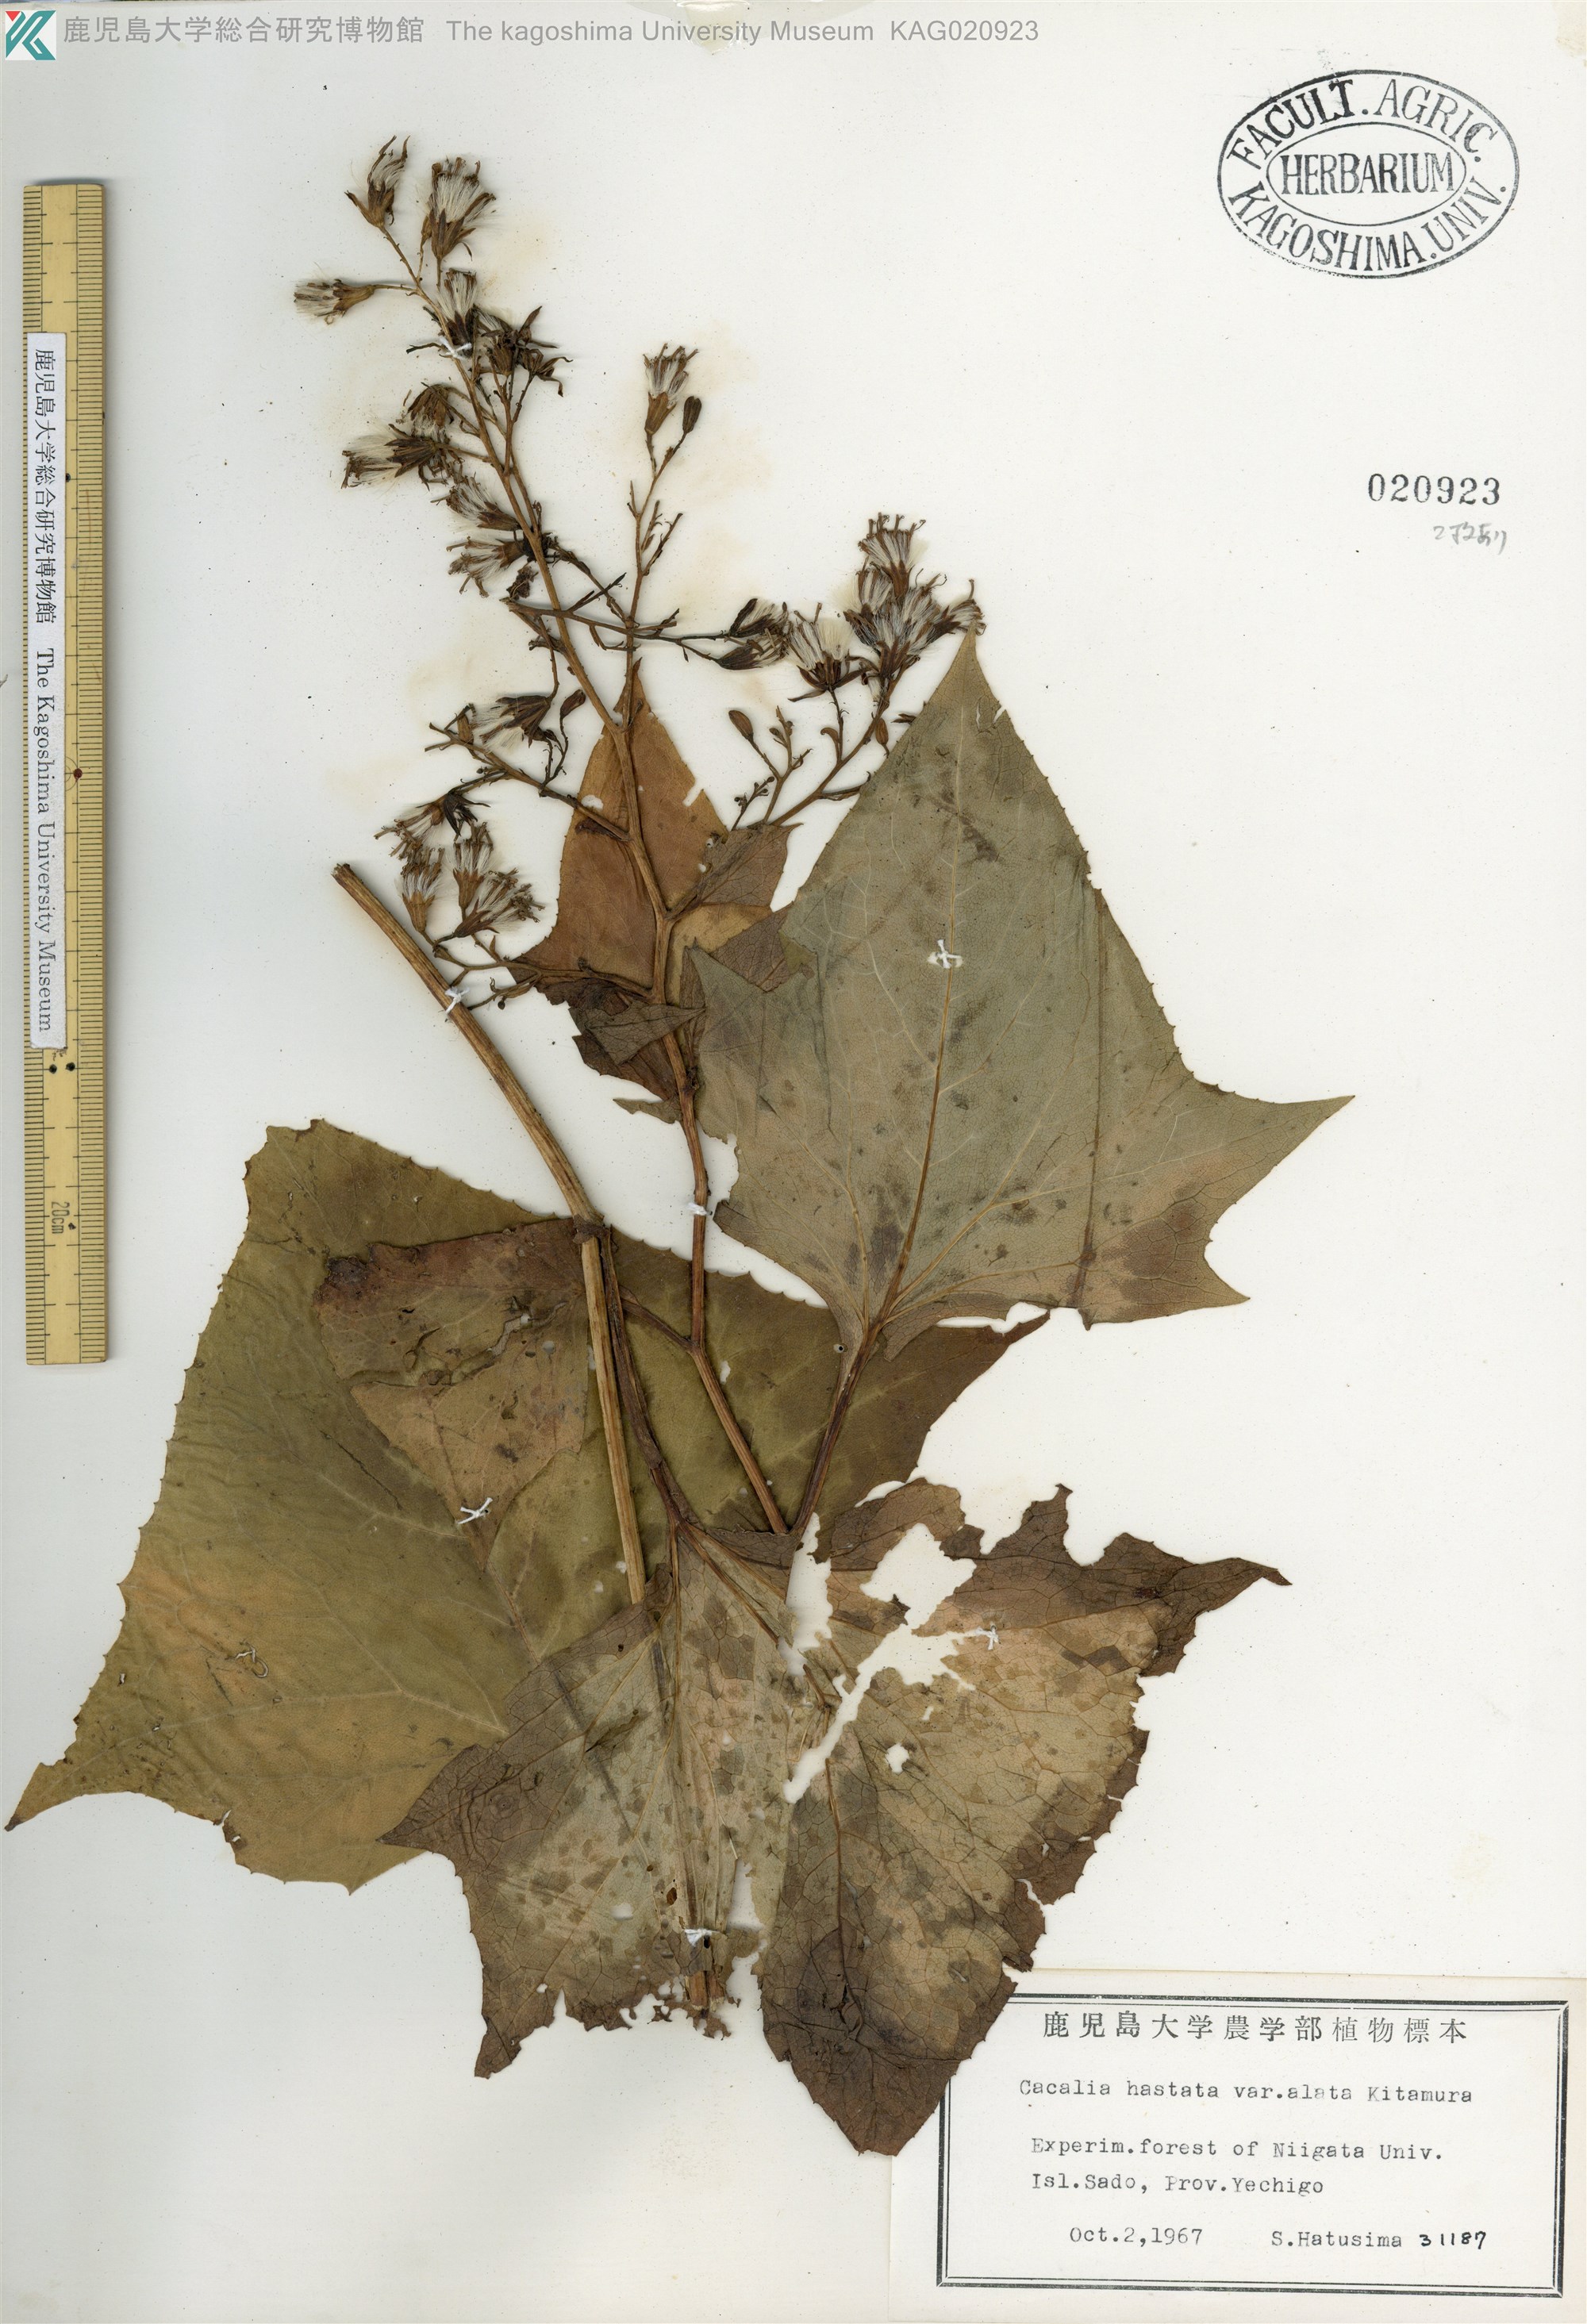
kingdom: Plantae
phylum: Tracheophyta
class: Magnoliopsida
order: Asterales
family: Asteraceae
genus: Parasenecio
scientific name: Parasenecio maximowicziana
